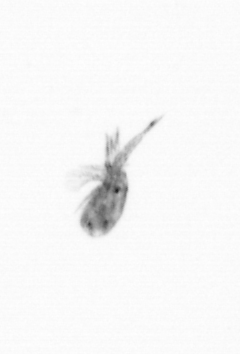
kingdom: Animalia
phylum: Arthropoda
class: Copepoda
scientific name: Copepoda
